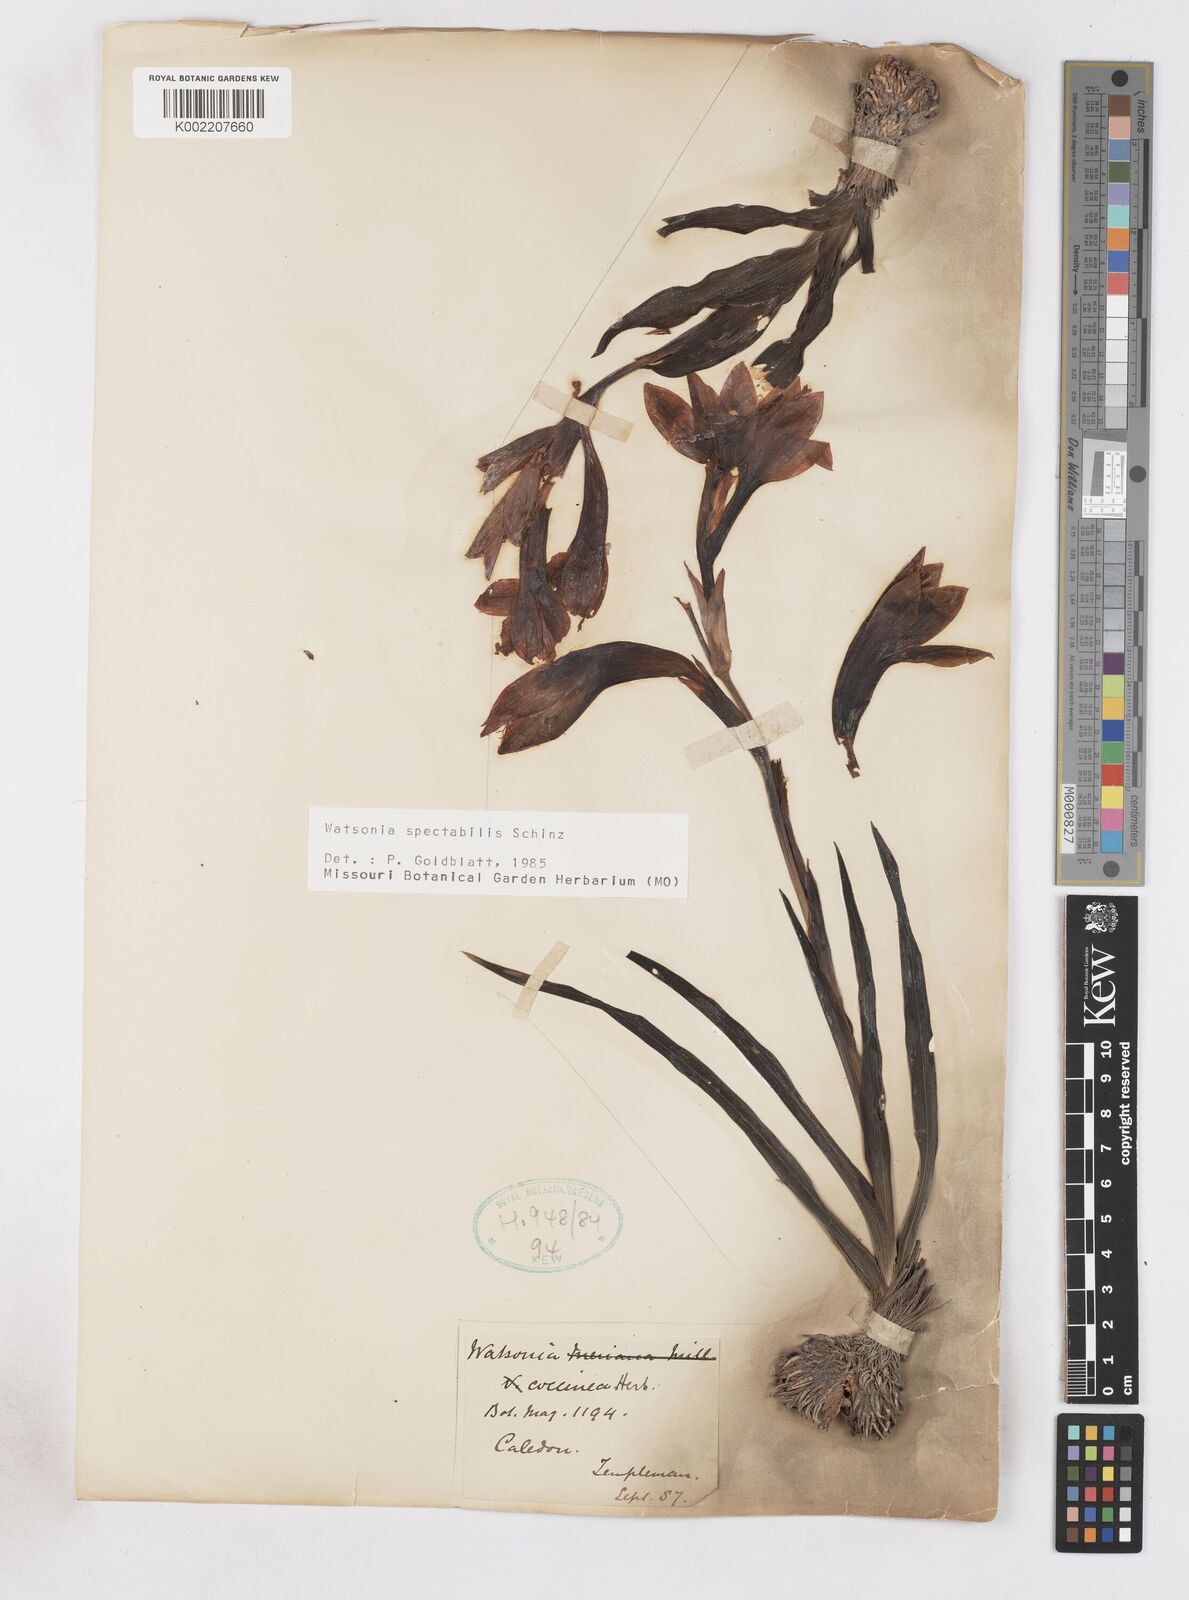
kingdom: Plantae
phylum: Tracheophyta
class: Liliopsida
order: Asparagales
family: Iridaceae
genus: Watsonia
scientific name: Watsonia spectabilis
